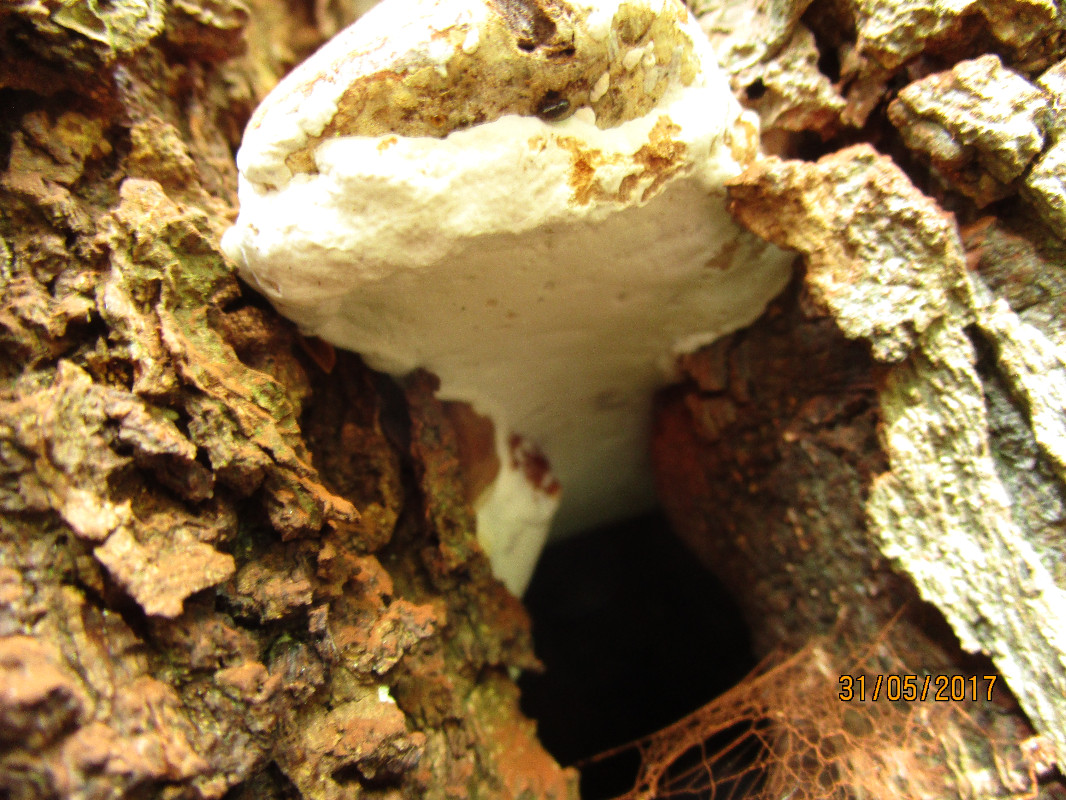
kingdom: Fungi
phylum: Basidiomycota
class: Agaricomycetes
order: Polyporales
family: Polyporaceae
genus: Ganoderma
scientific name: Ganoderma adspersum
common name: grov lakporesvamp
